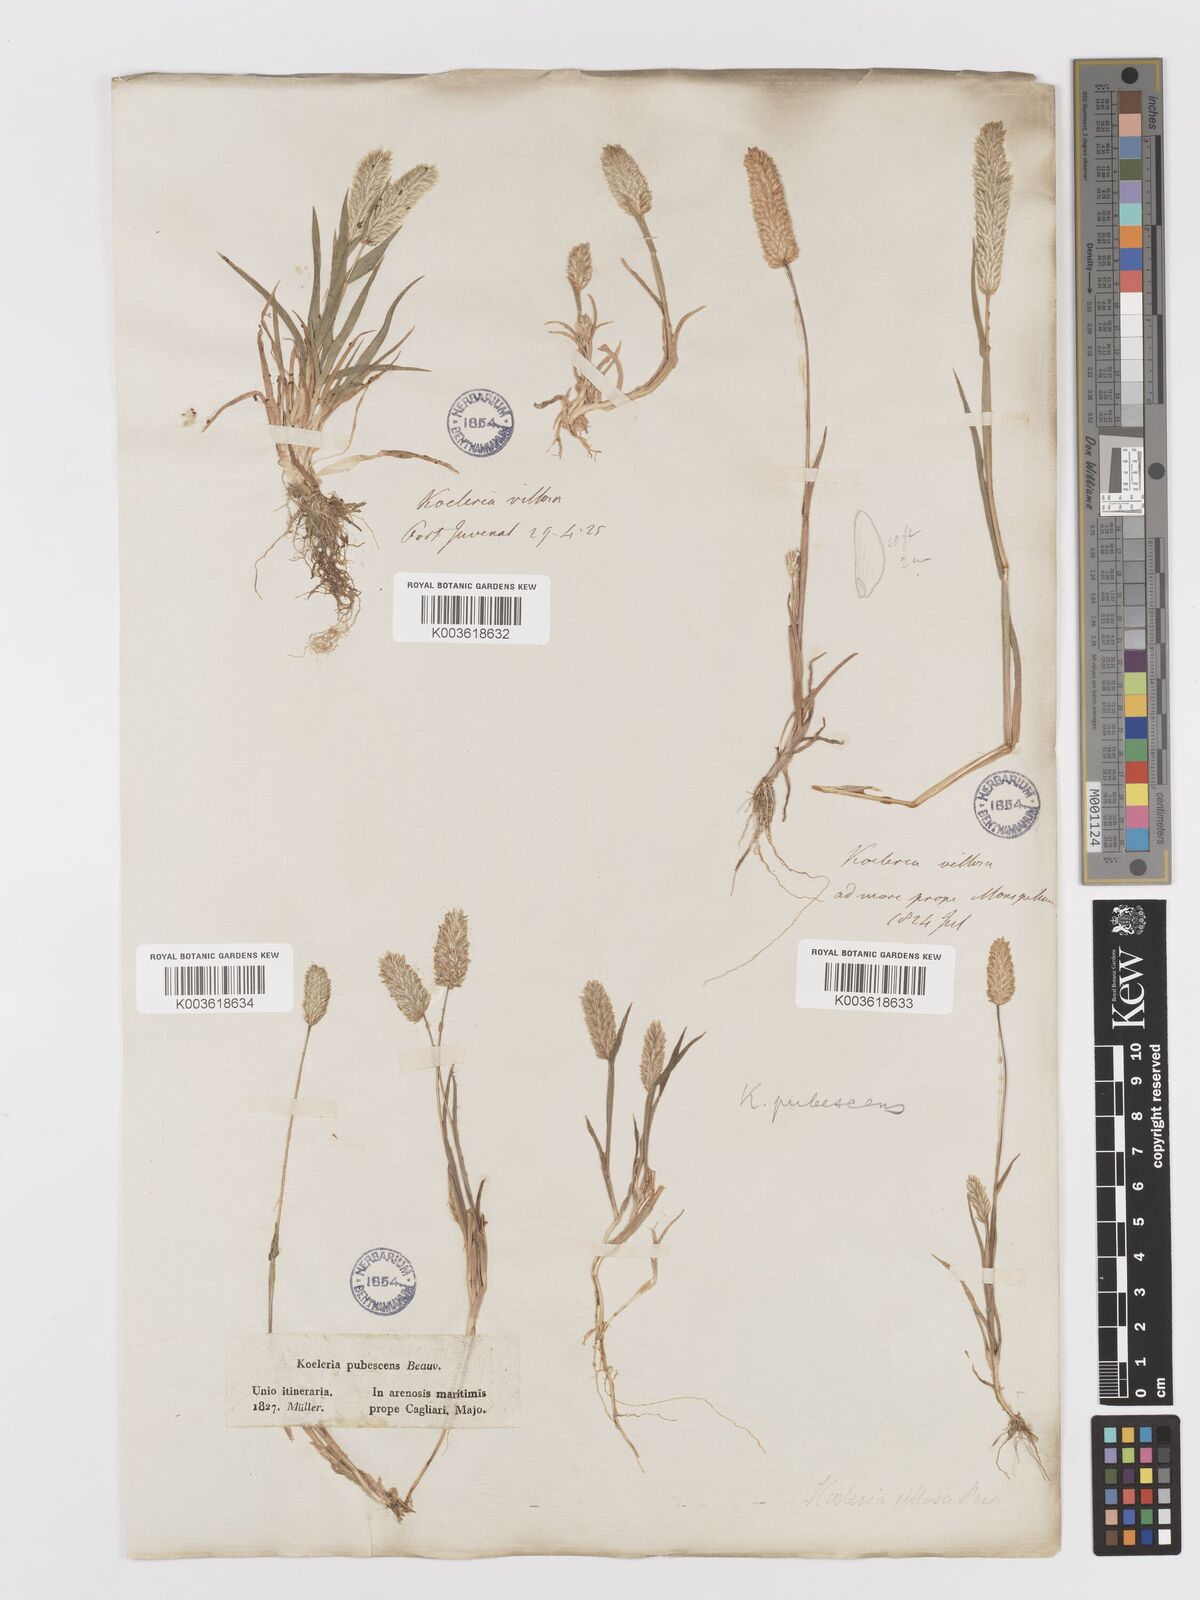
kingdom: Plantae
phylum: Tracheophyta
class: Liliopsida
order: Poales
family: Poaceae
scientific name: Poaceae
